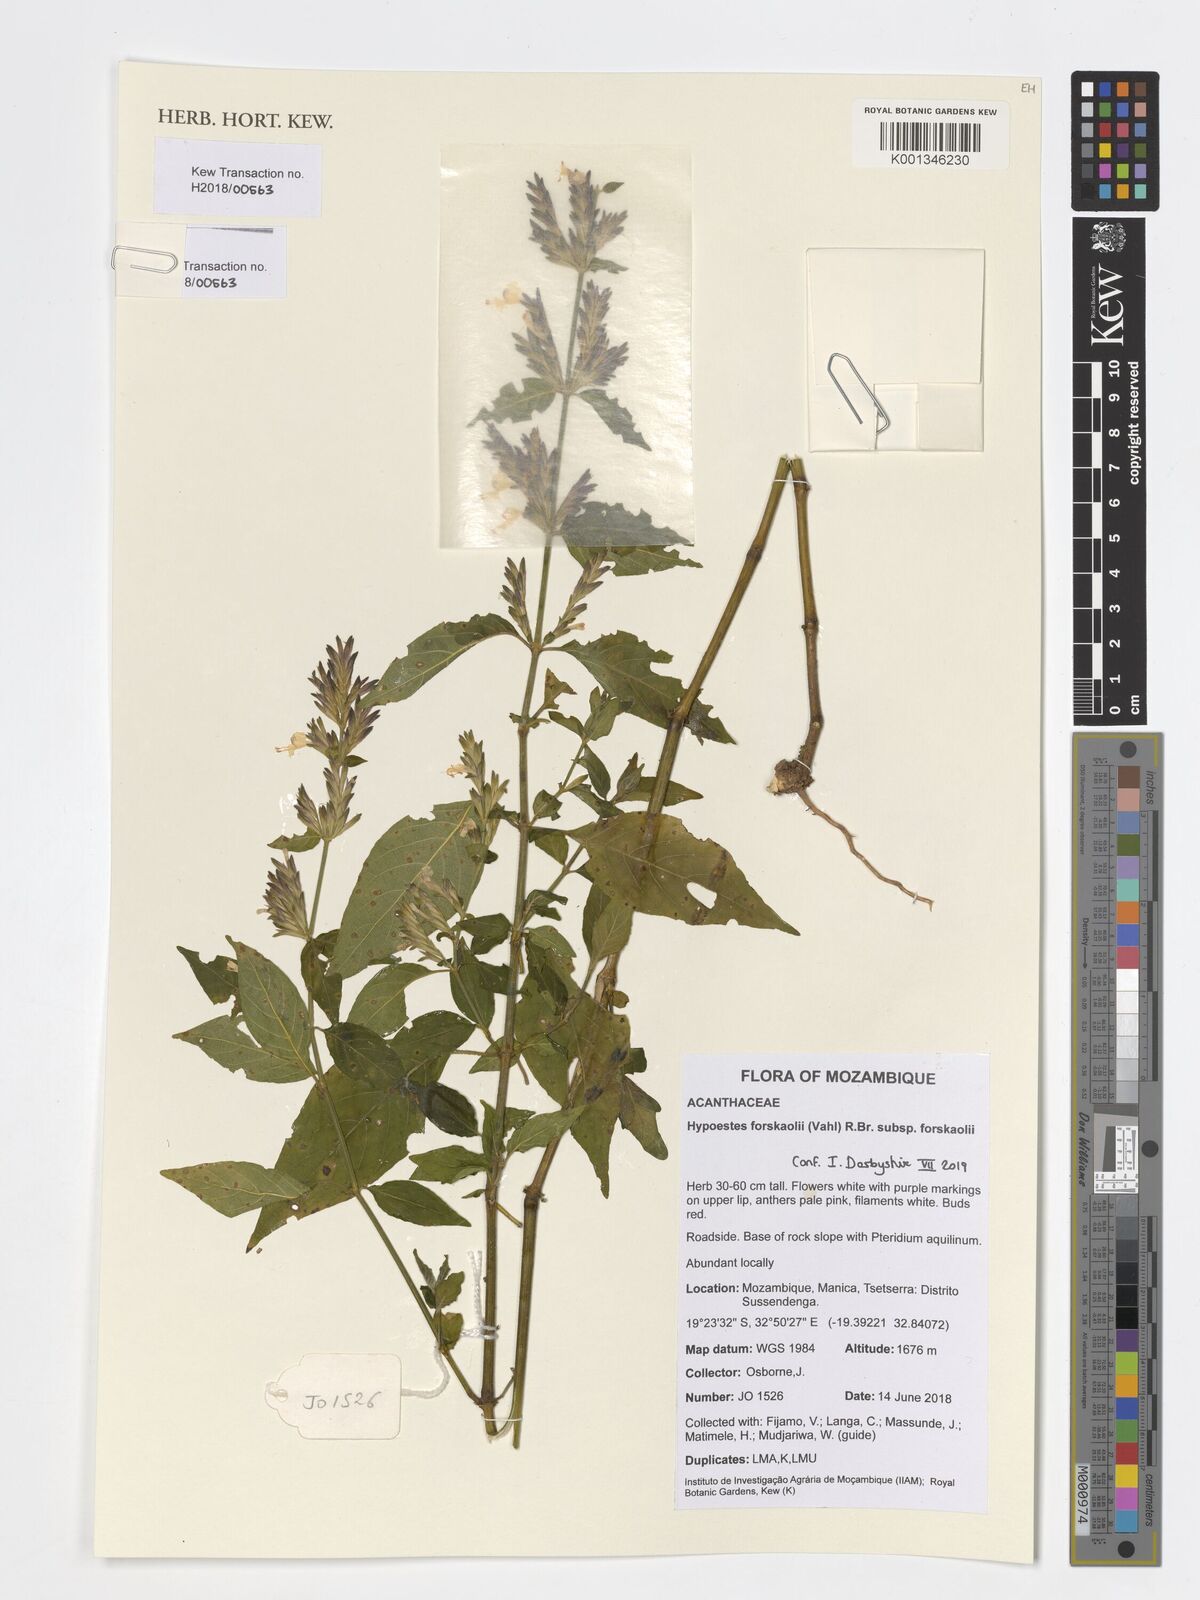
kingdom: Plantae
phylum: Tracheophyta
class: Magnoliopsida
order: Lamiales
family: Acanthaceae
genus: Hypoestes
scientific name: Hypoestes forskaolii
